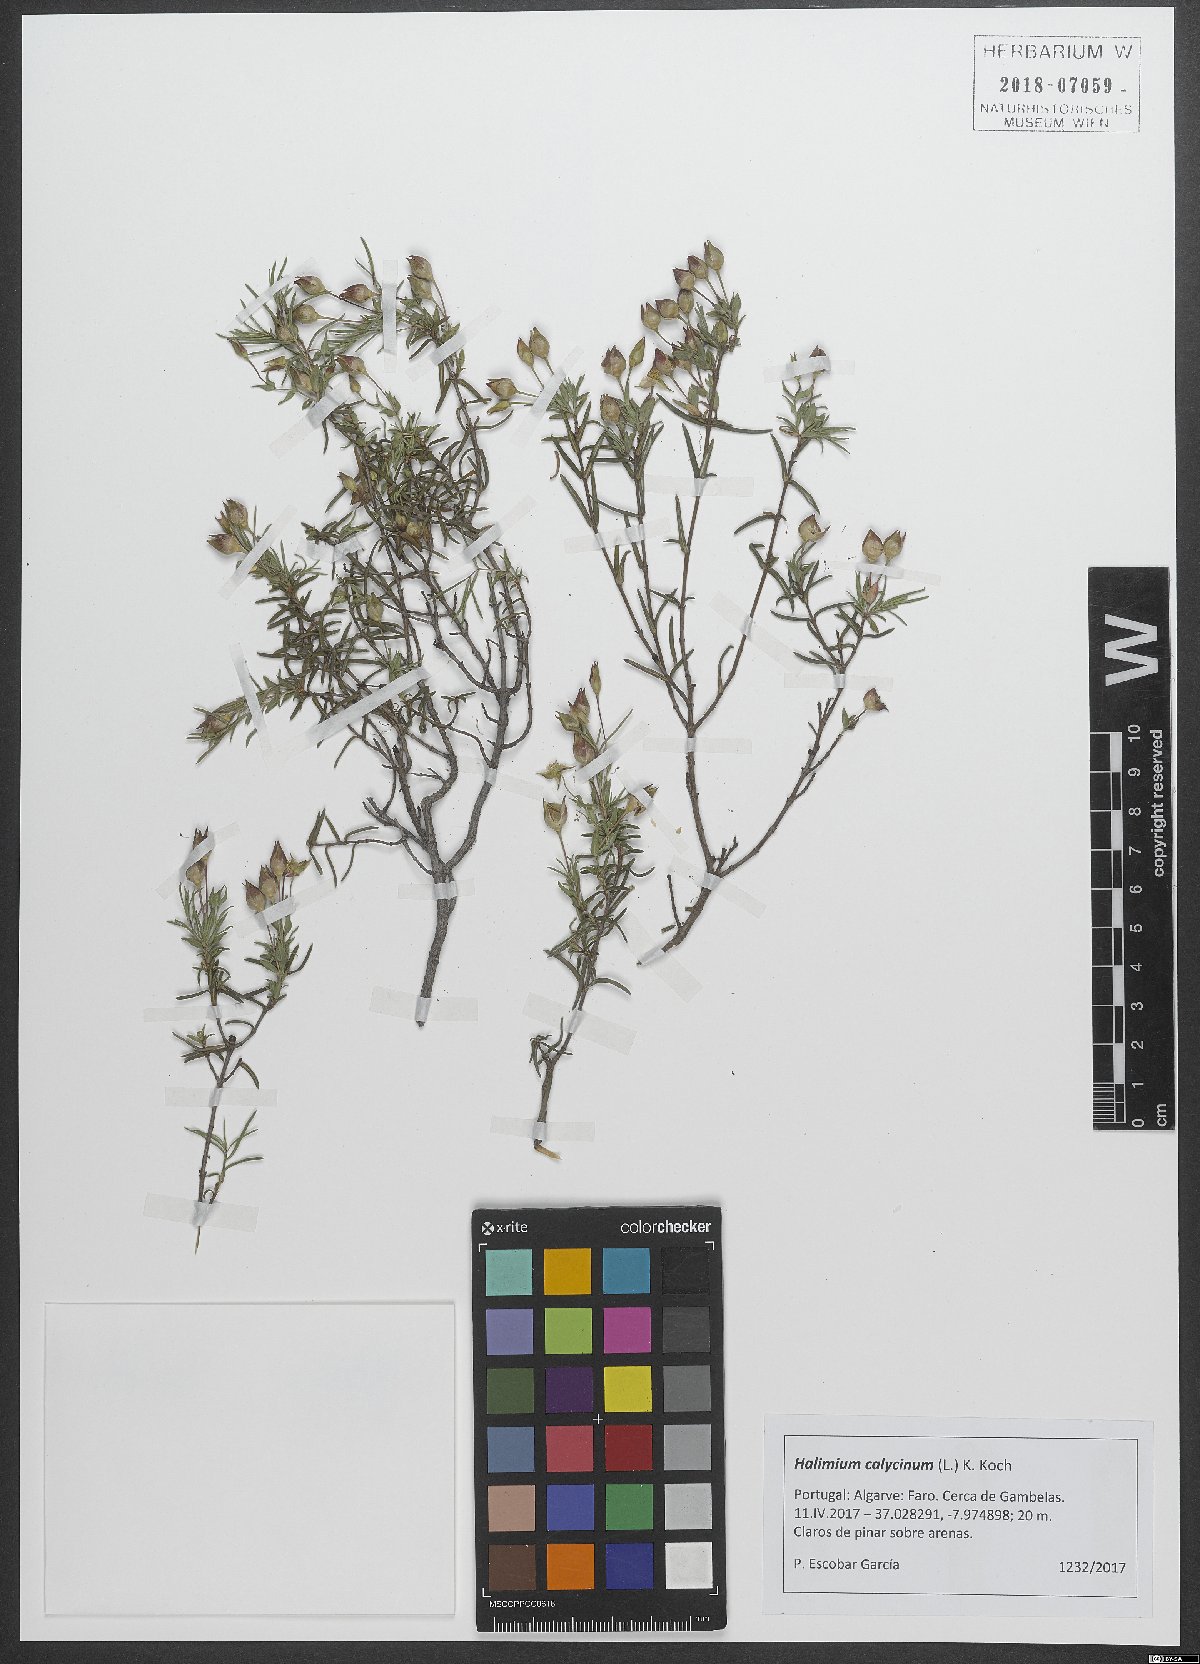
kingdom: Plantae
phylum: Tracheophyta
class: Magnoliopsida
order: Malvales
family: Cistaceae
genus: Halimium
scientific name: Halimium calycinum
